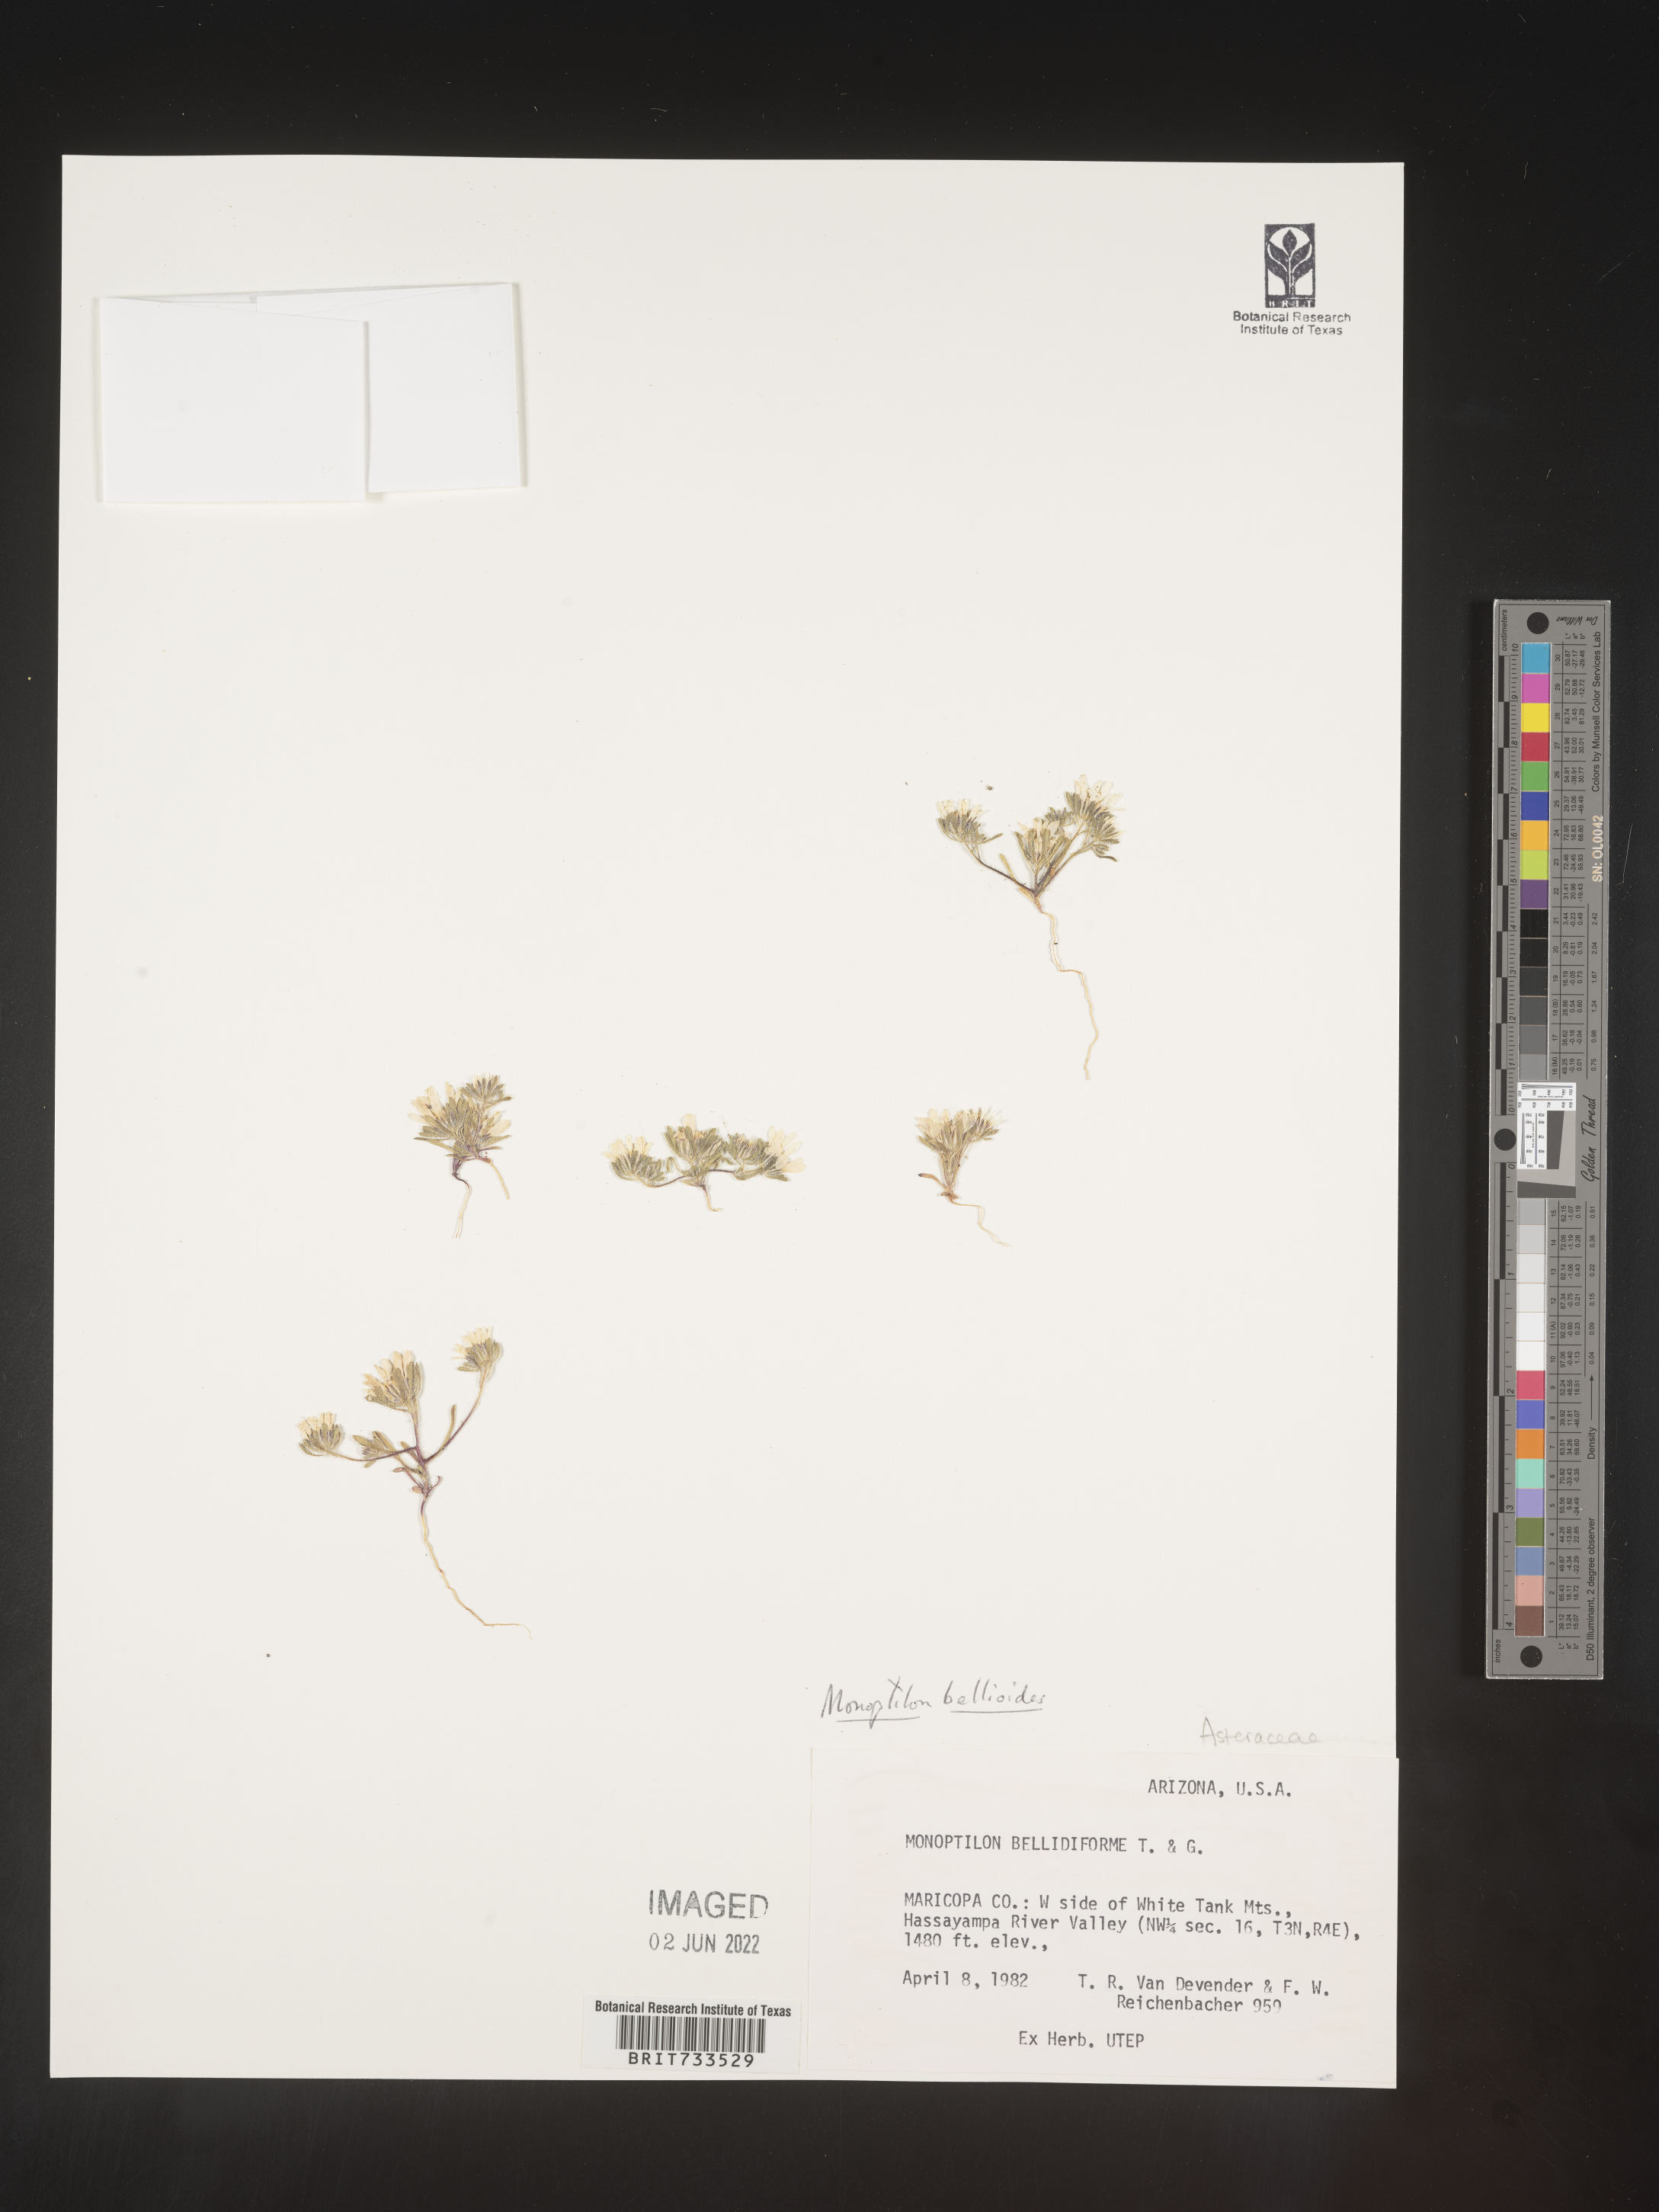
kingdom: Plantae
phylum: Tracheophyta
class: Magnoliopsida
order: Asterales
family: Asteraceae
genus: Monoptilon
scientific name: Monoptilon
